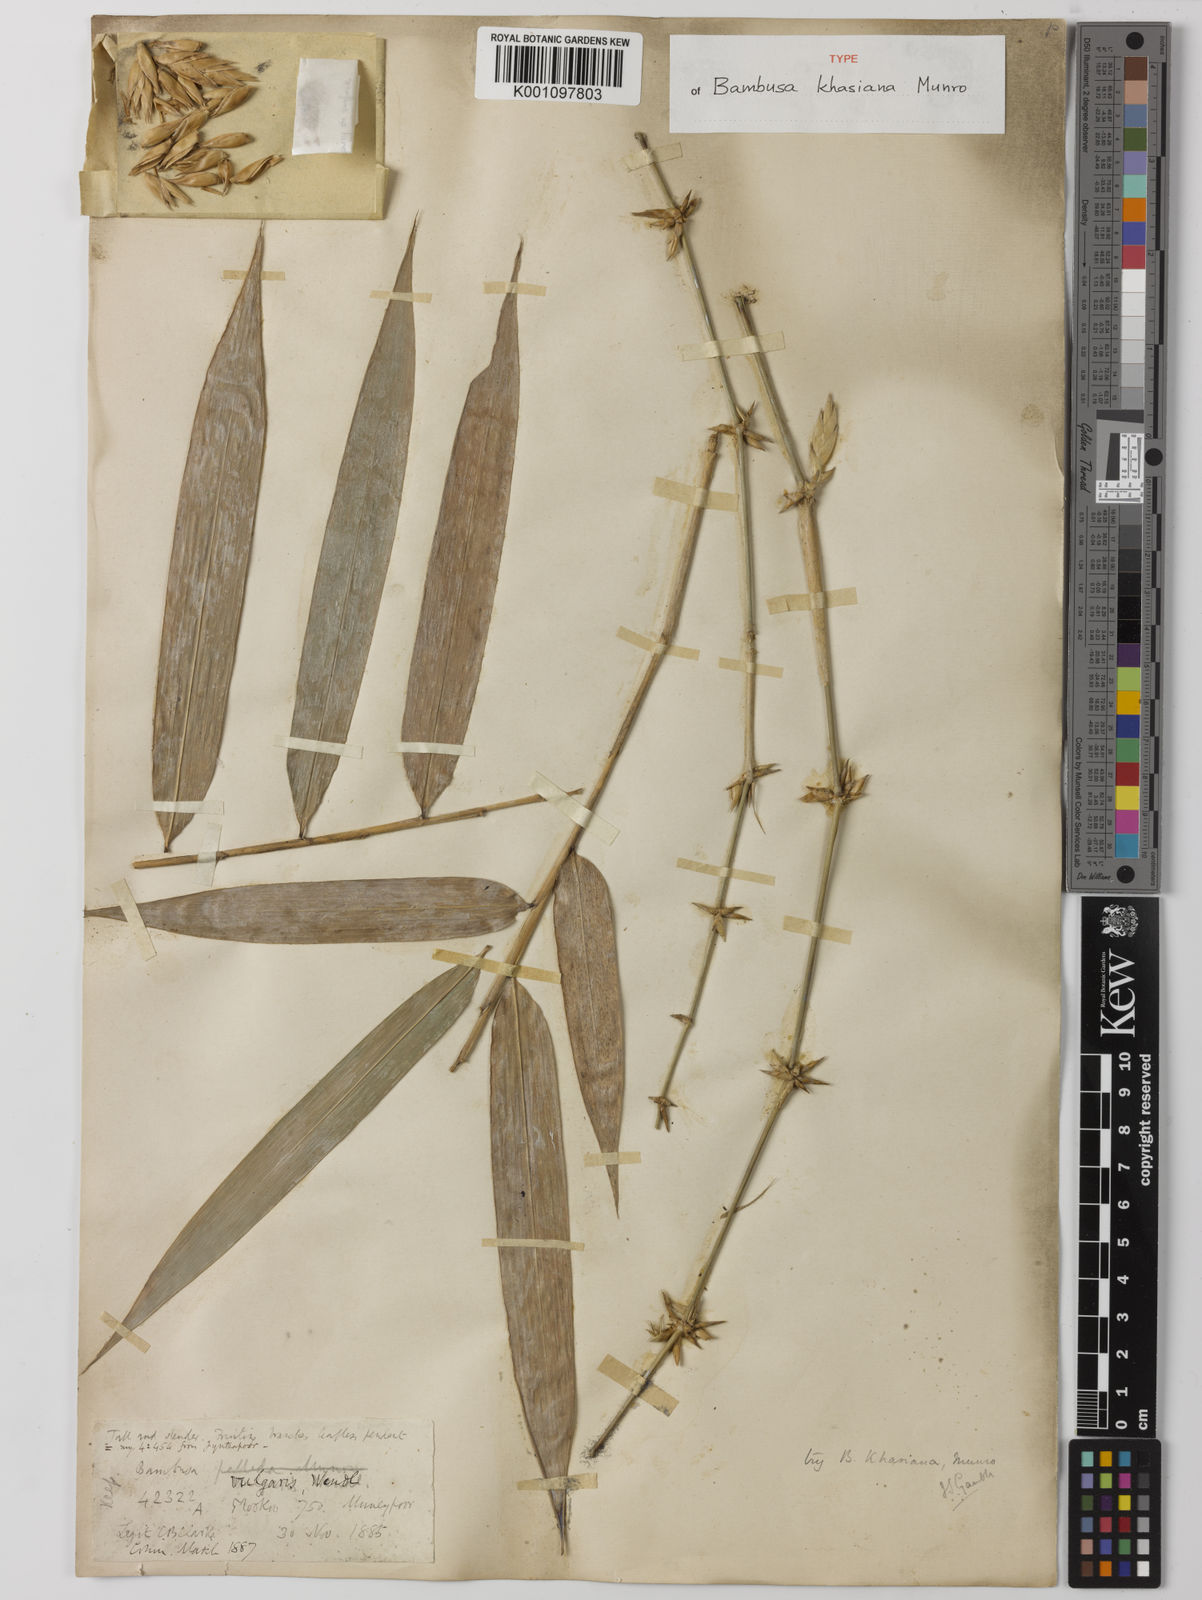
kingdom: Plantae
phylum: Tracheophyta
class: Liliopsida
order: Poales
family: Poaceae
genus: Bambusa
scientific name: Bambusa khasiana
